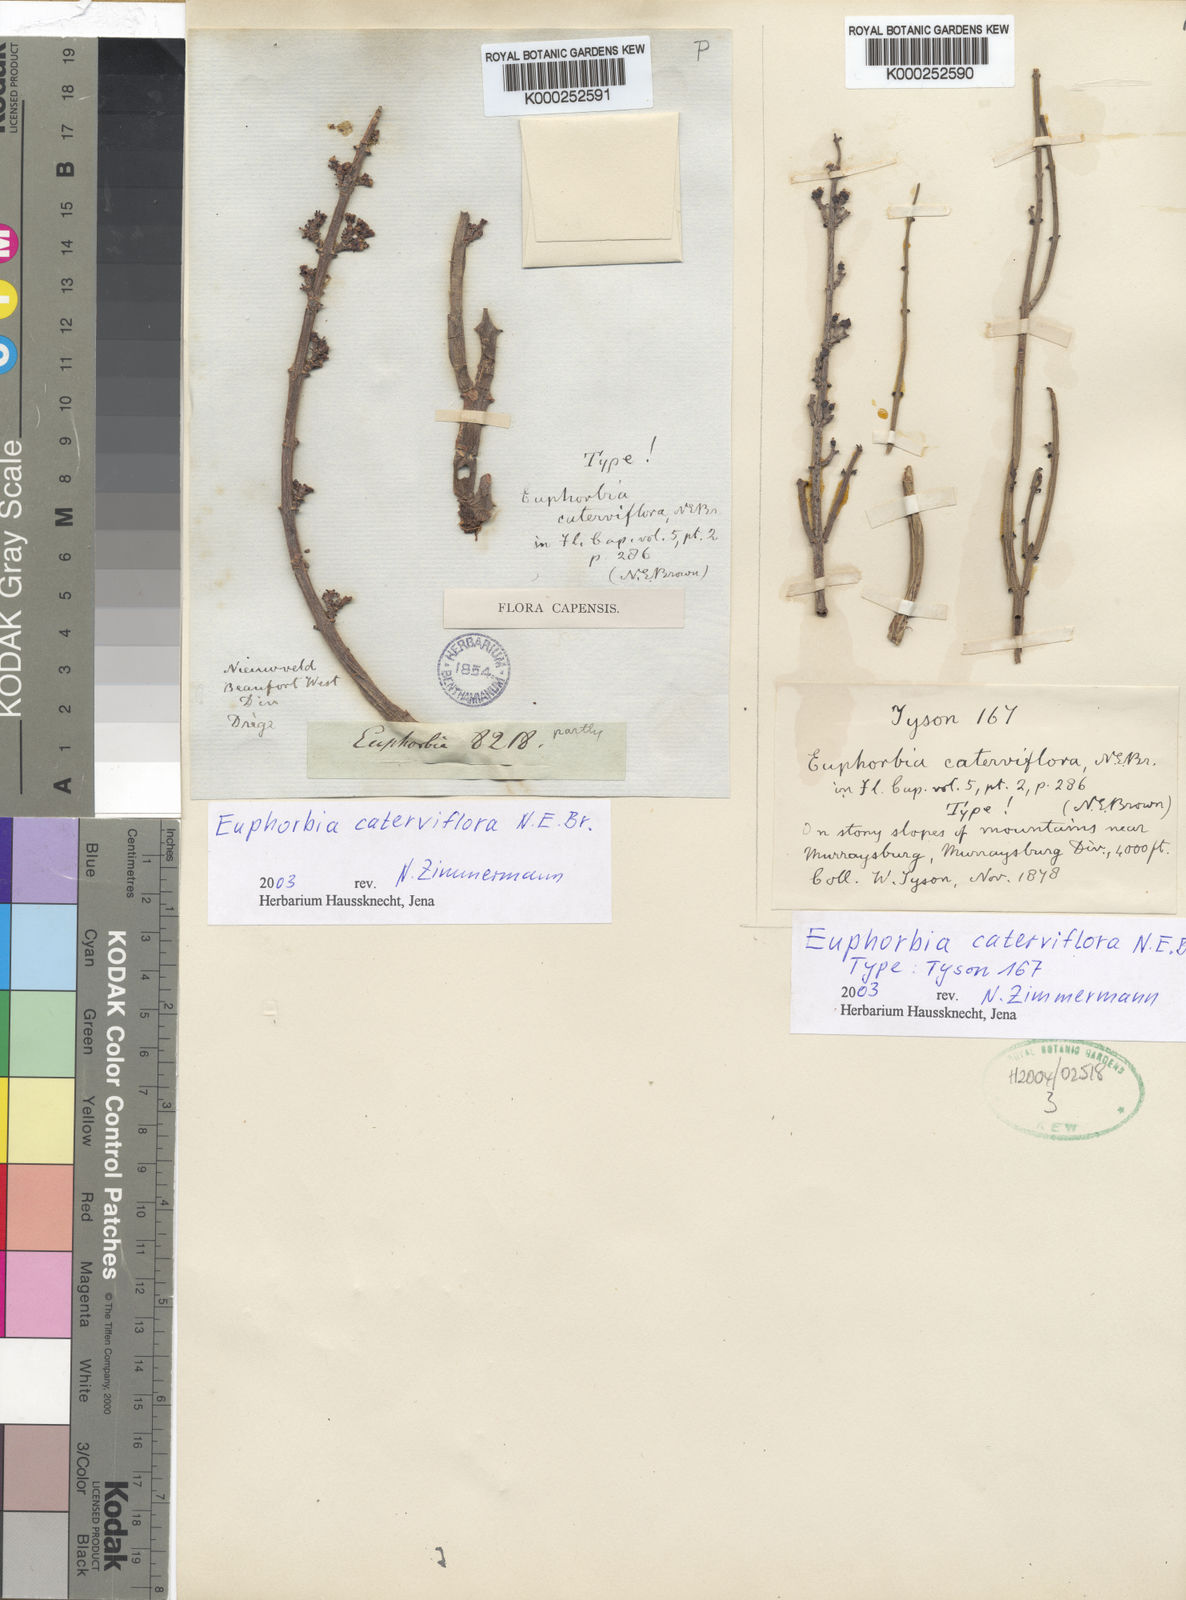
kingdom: Plantae
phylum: Tracheophyta
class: Magnoliopsida
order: Malpighiales
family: Euphorbiaceae
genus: Euphorbia
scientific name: Euphorbia rhombifolia
